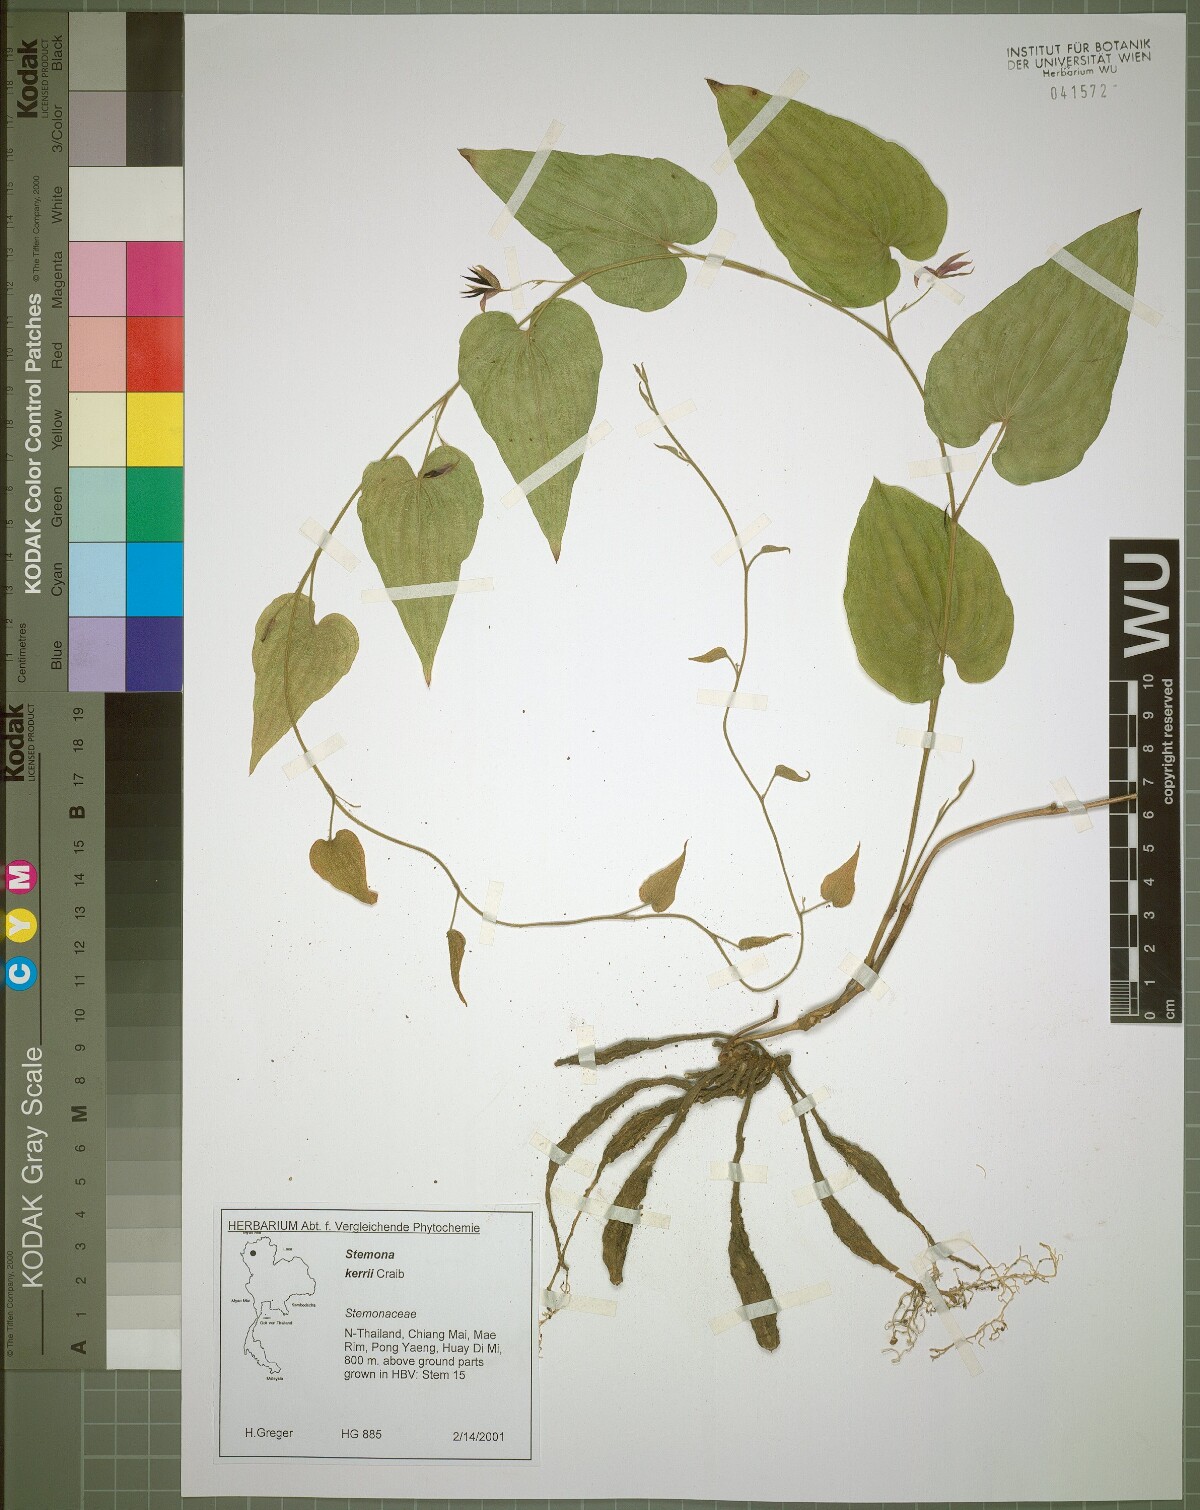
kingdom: Plantae
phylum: Tracheophyta
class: Liliopsida
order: Pandanales
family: Stemonaceae
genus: Stemona
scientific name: Stemona kerrii
